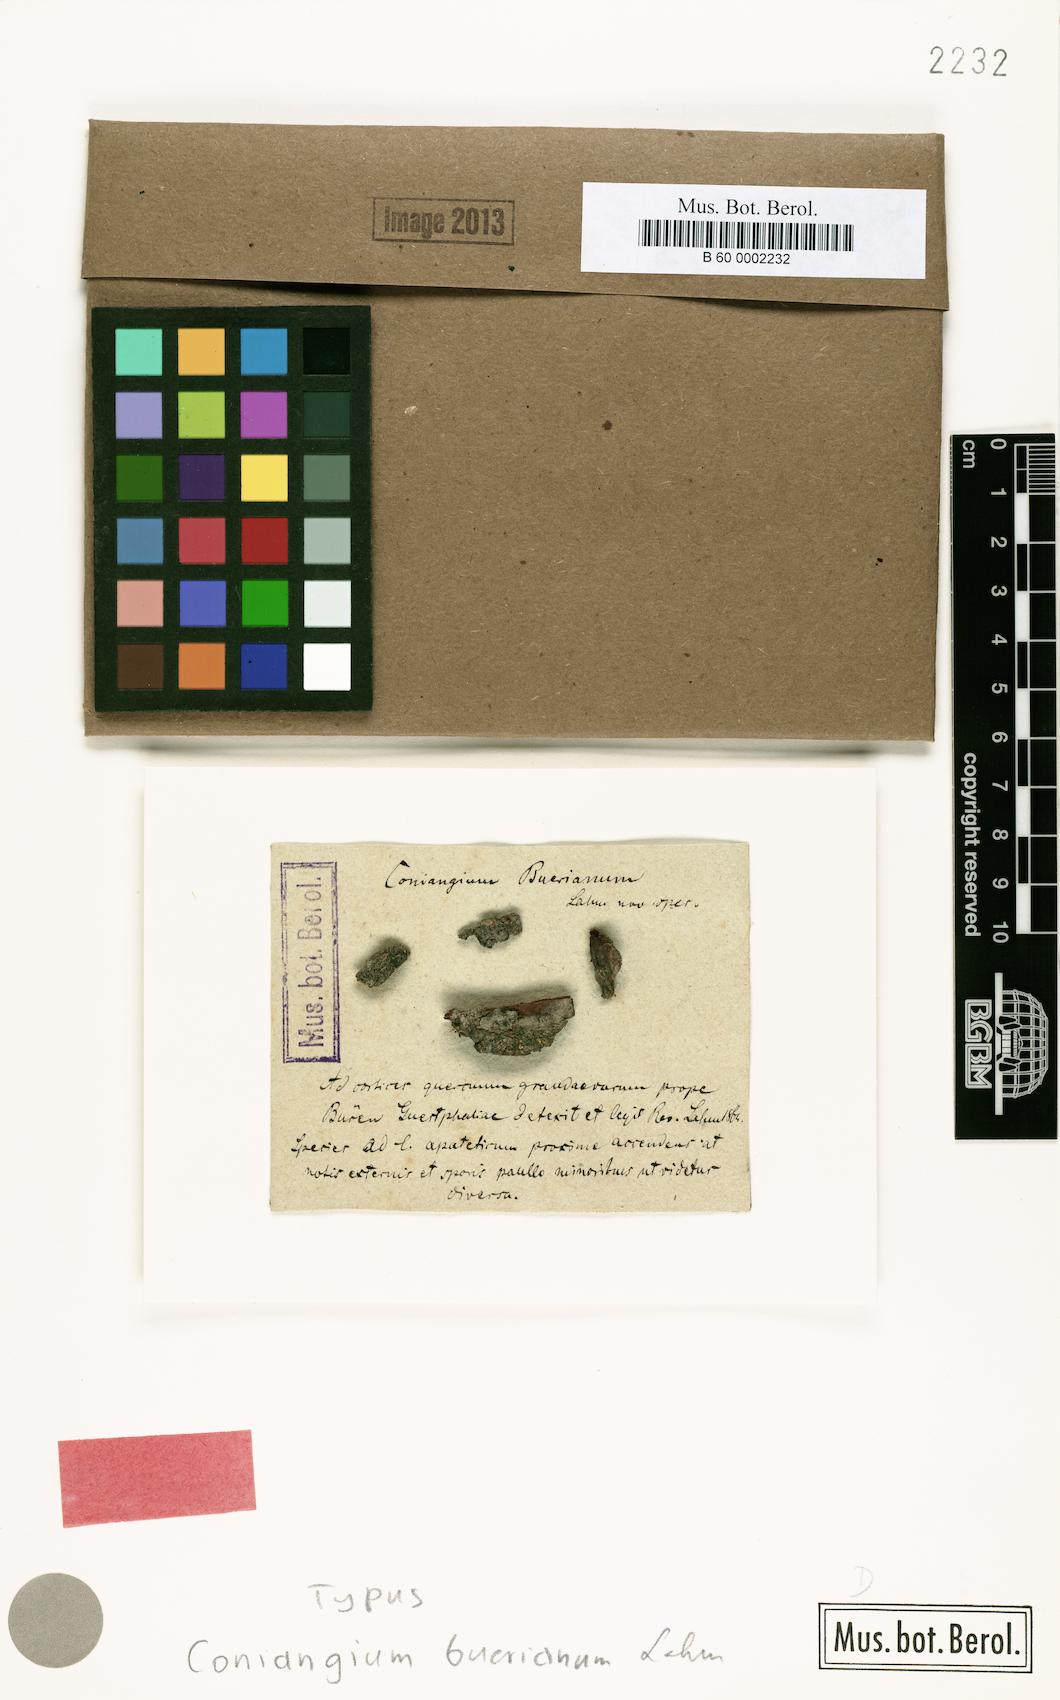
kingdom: Fungi
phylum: Ascomycota
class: Arthoniomycetes
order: Arthoniales
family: Arthoniaceae
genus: Arthonia
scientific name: Arthonia bueriana
